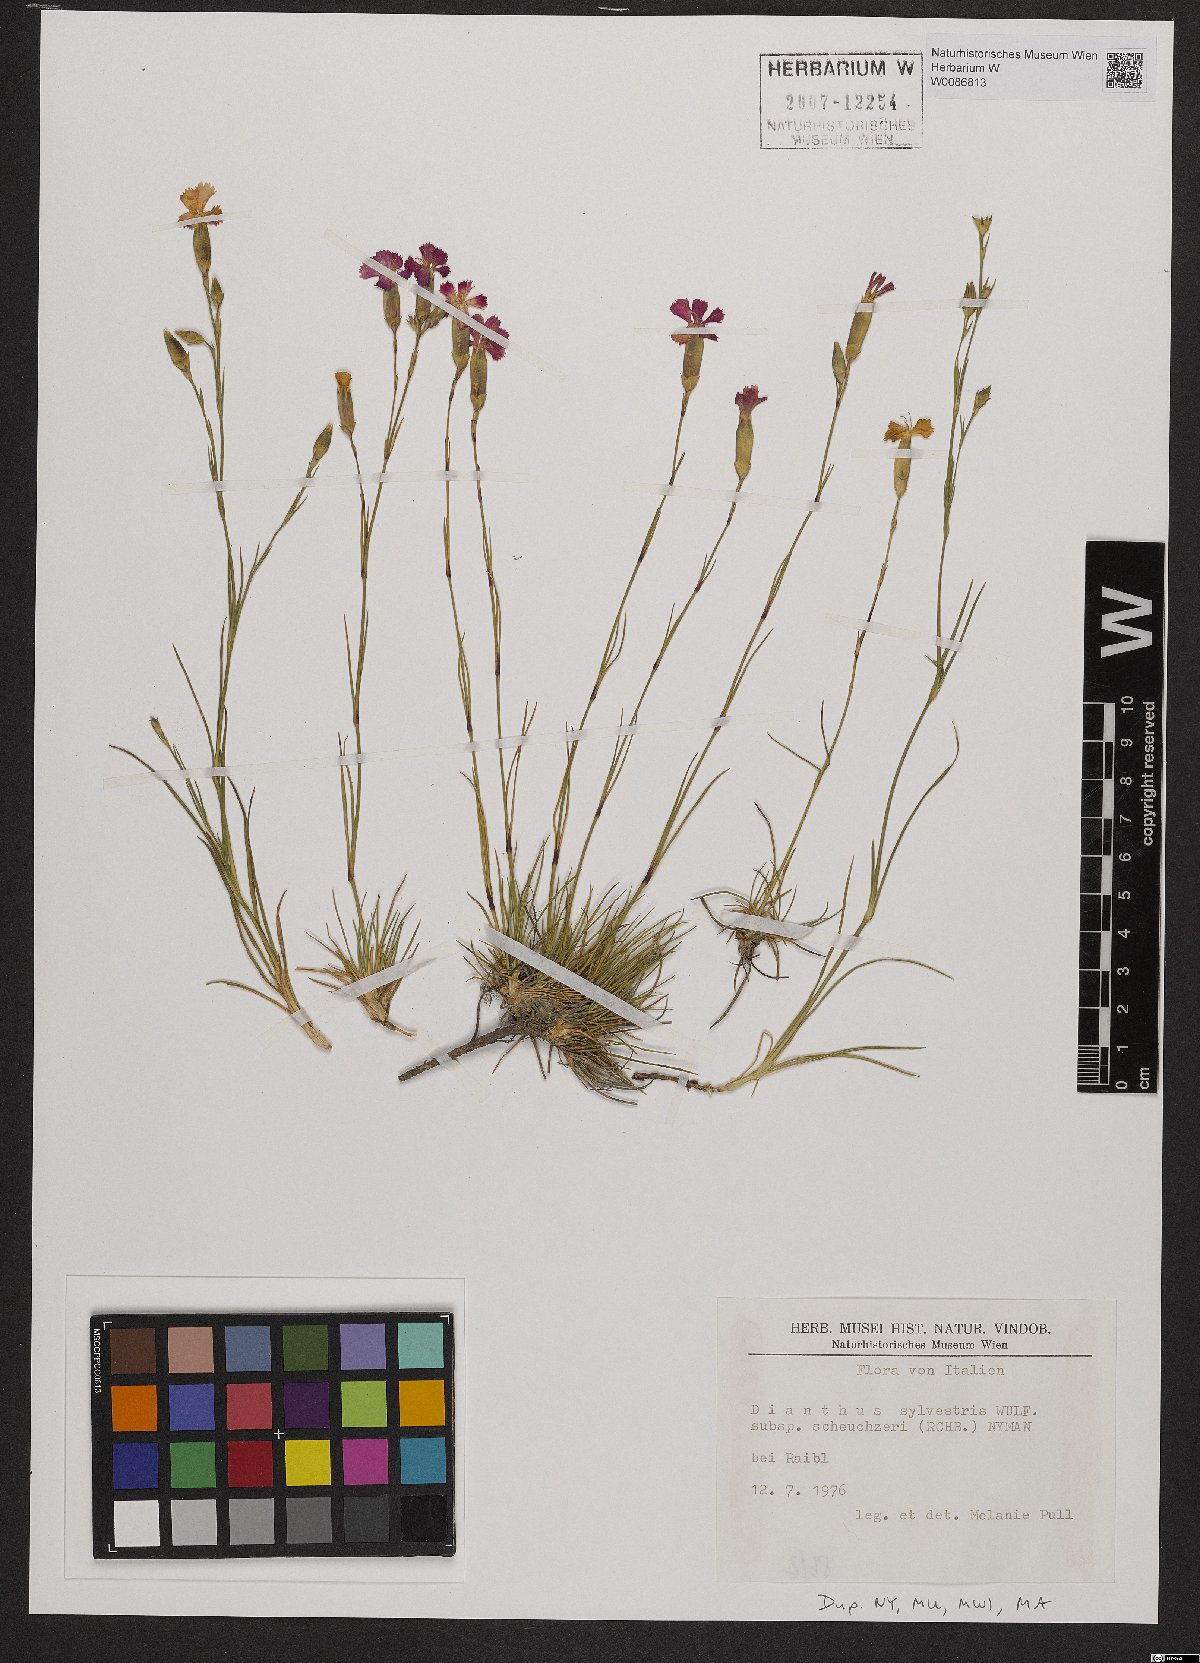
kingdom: Plantae
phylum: Tracheophyta
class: Magnoliopsida
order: Caryophyllales
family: Caryophyllaceae
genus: Dianthus
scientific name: Dianthus sylvestris
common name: Wood pink
